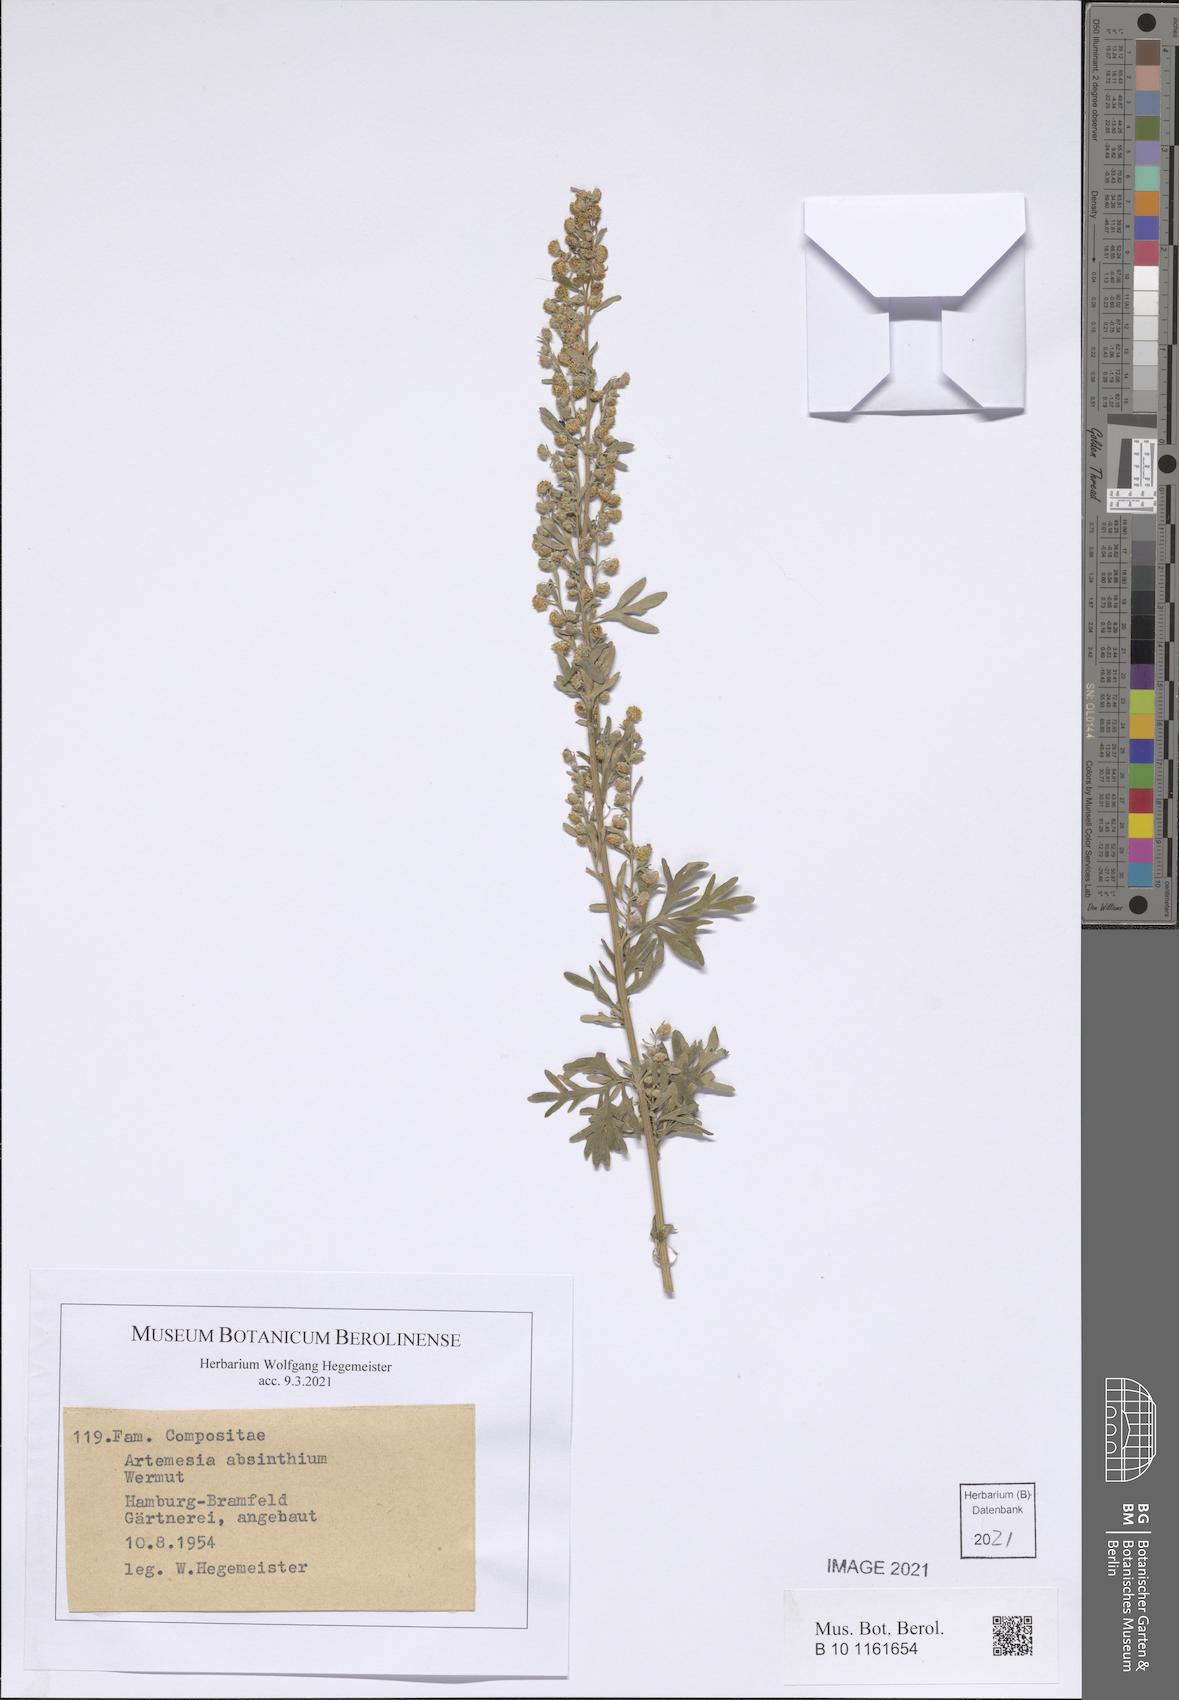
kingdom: Plantae
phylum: Tracheophyta
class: Magnoliopsida
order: Asterales
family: Asteraceae
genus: Artemisia
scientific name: Artemisia absinthium
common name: Wormwood
